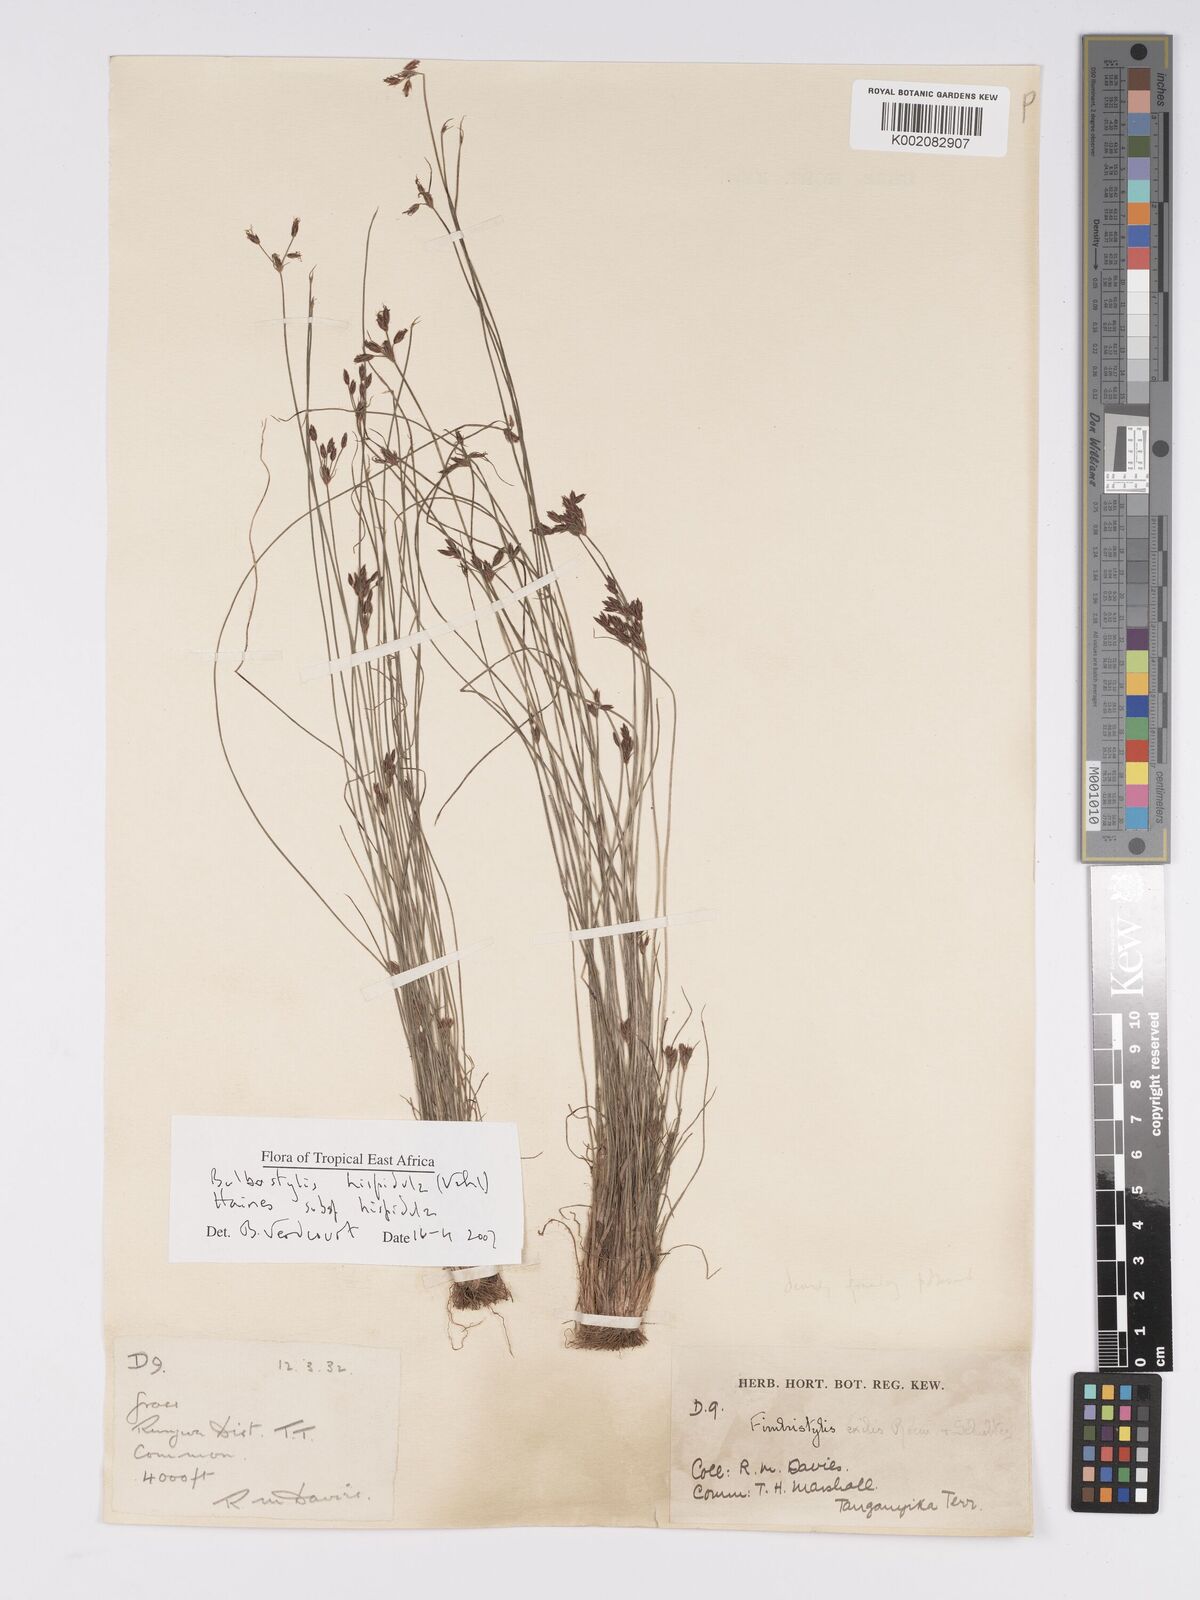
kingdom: Plantae
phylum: Tracheophyta
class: Liliopsida
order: Poales
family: Cyperaceae
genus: Bulbostylis
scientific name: Bulbostylis hispidula
